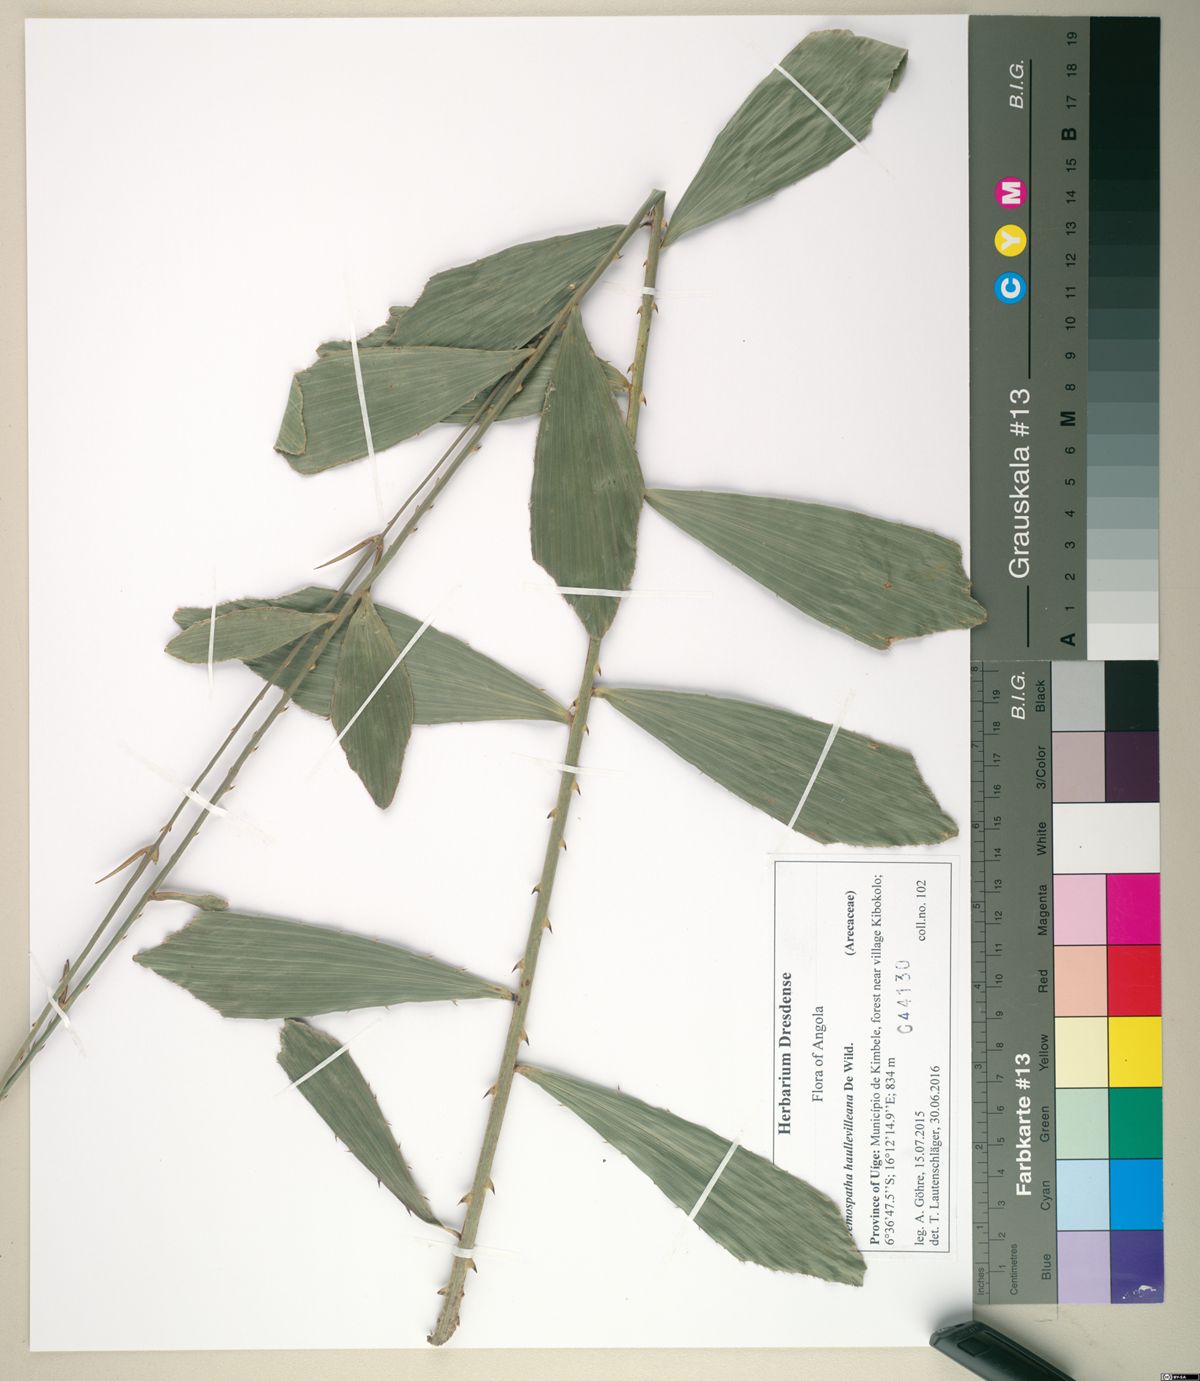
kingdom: Plantae
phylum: Tracheophyta
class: Liliopsida
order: Arecales
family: Arecaceae
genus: Eremospatha
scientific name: Eremospatha haullevilleana
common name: Rattan
